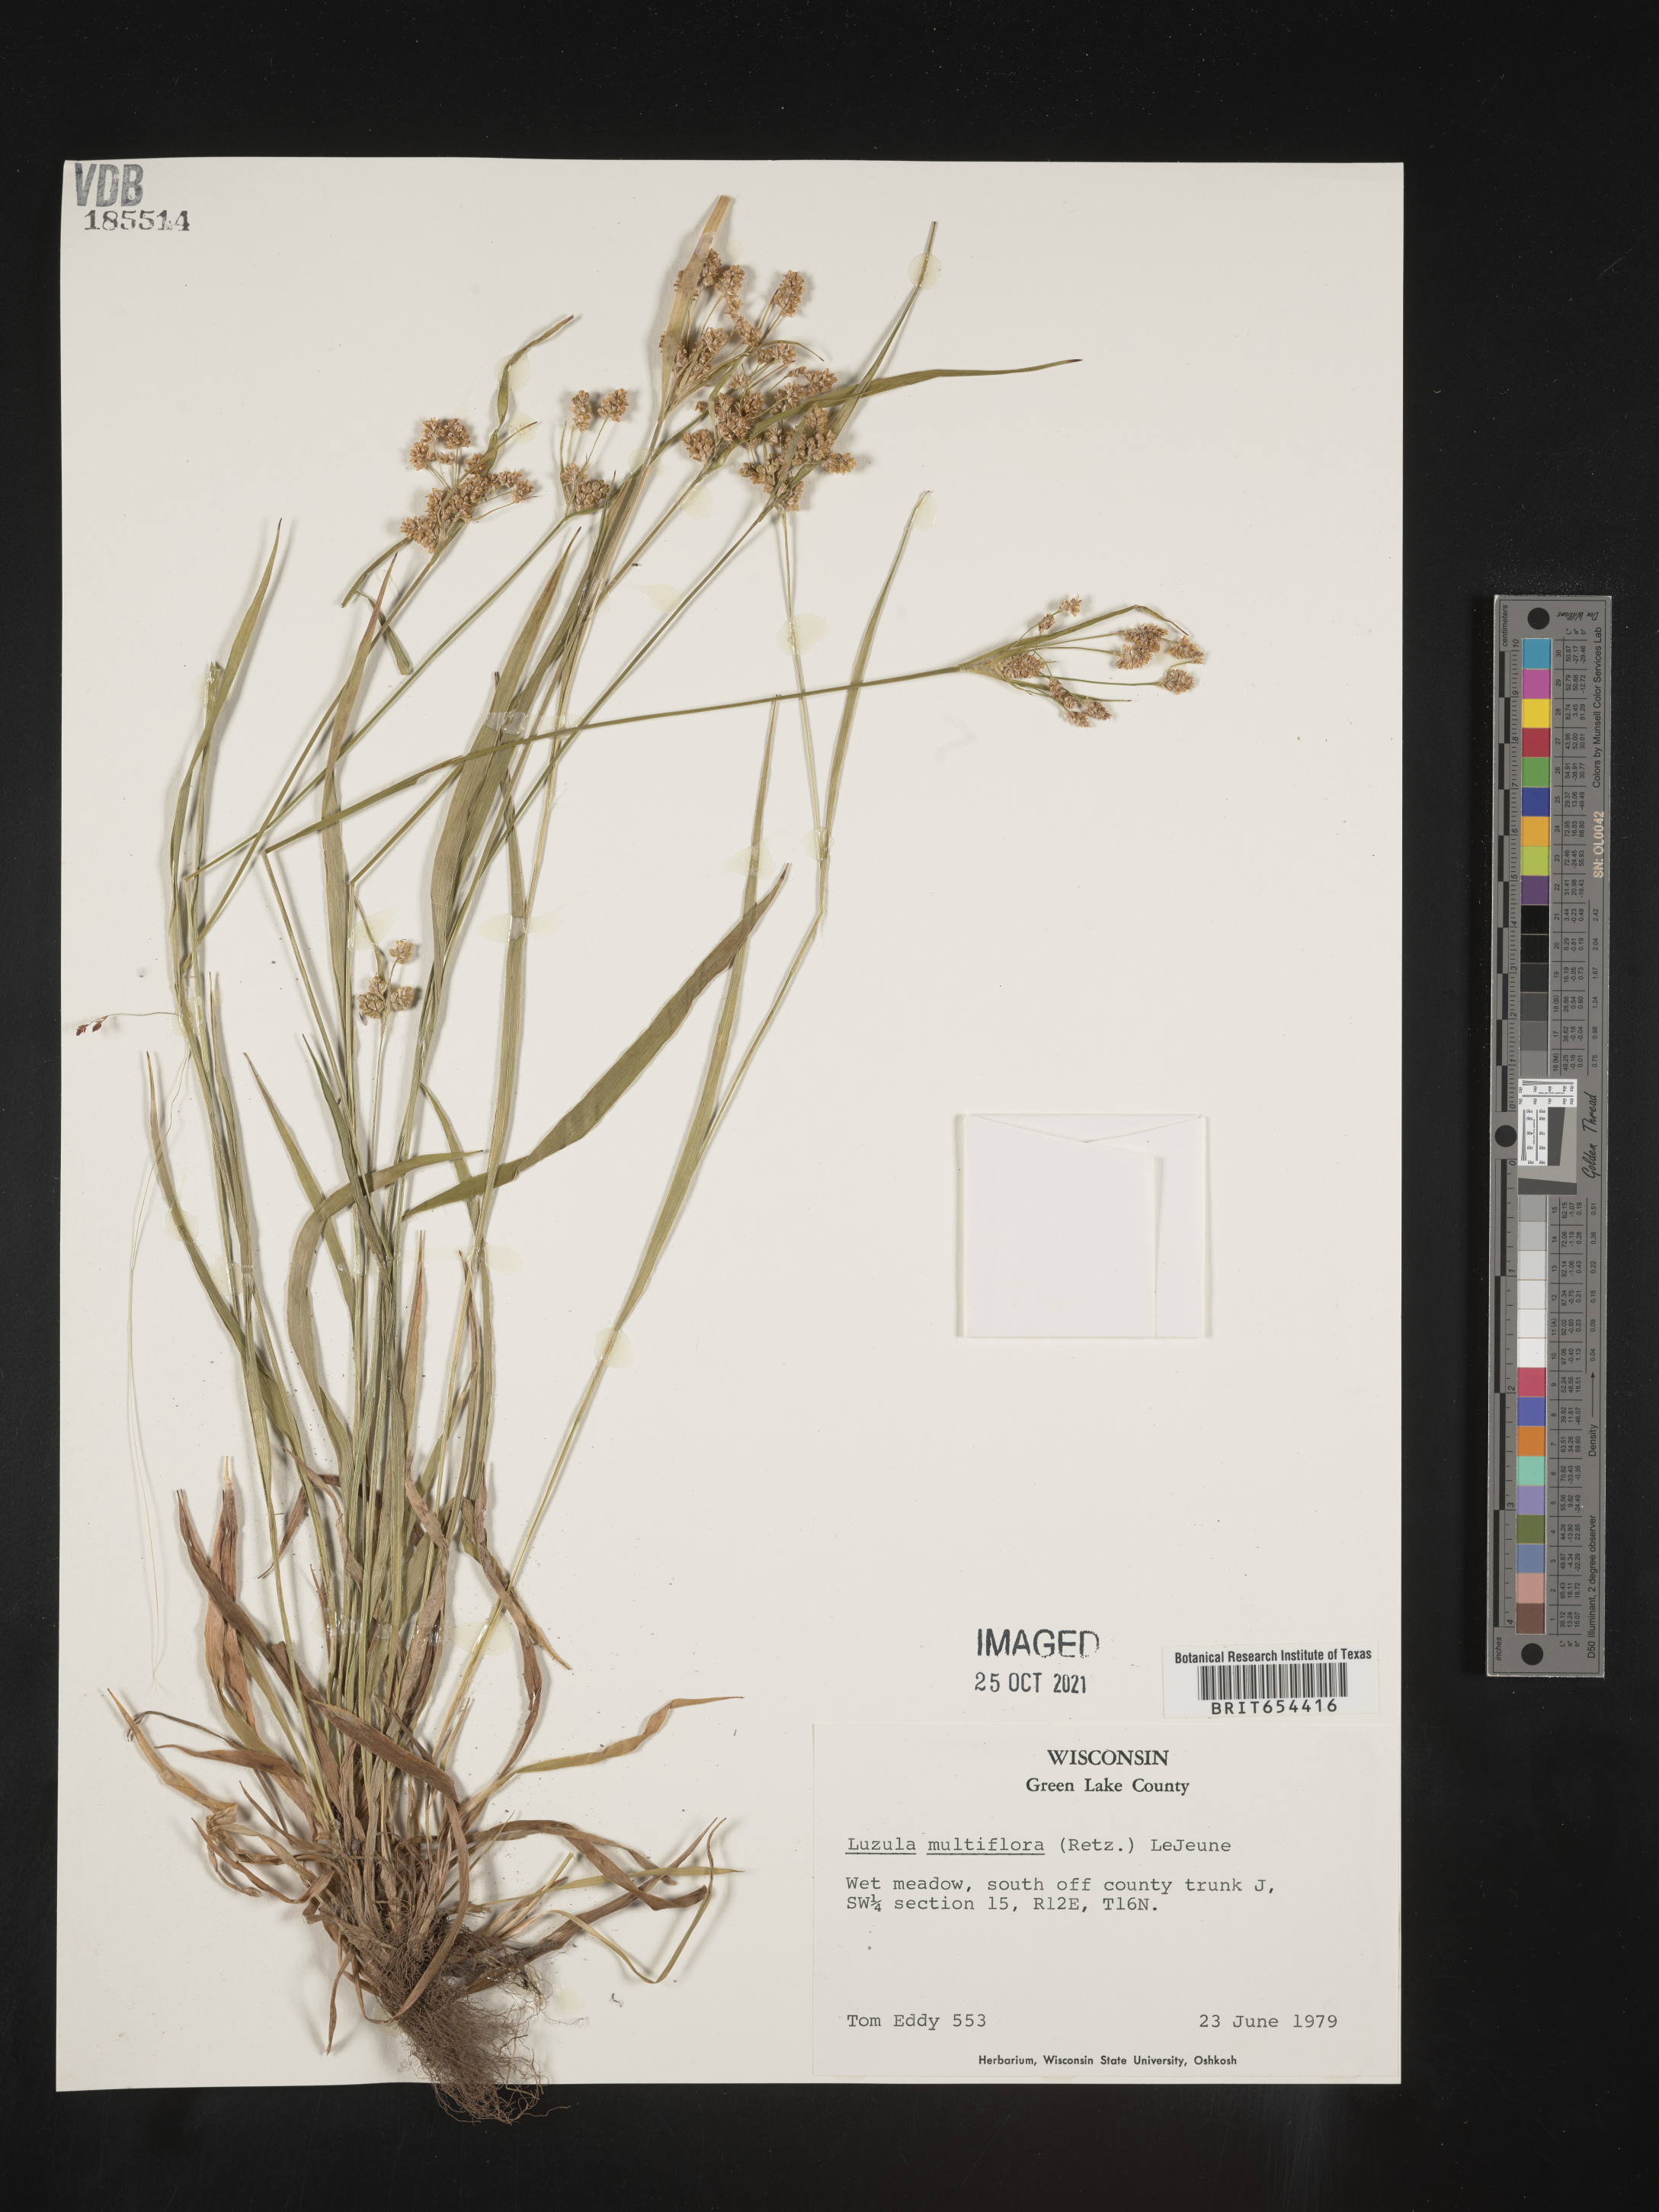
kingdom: Plantae
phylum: Tracheophyta
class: Liliopsida
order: Poales
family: Juncaceae
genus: Luzula
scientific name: Luzula multiflora
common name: Heath wood-rush
